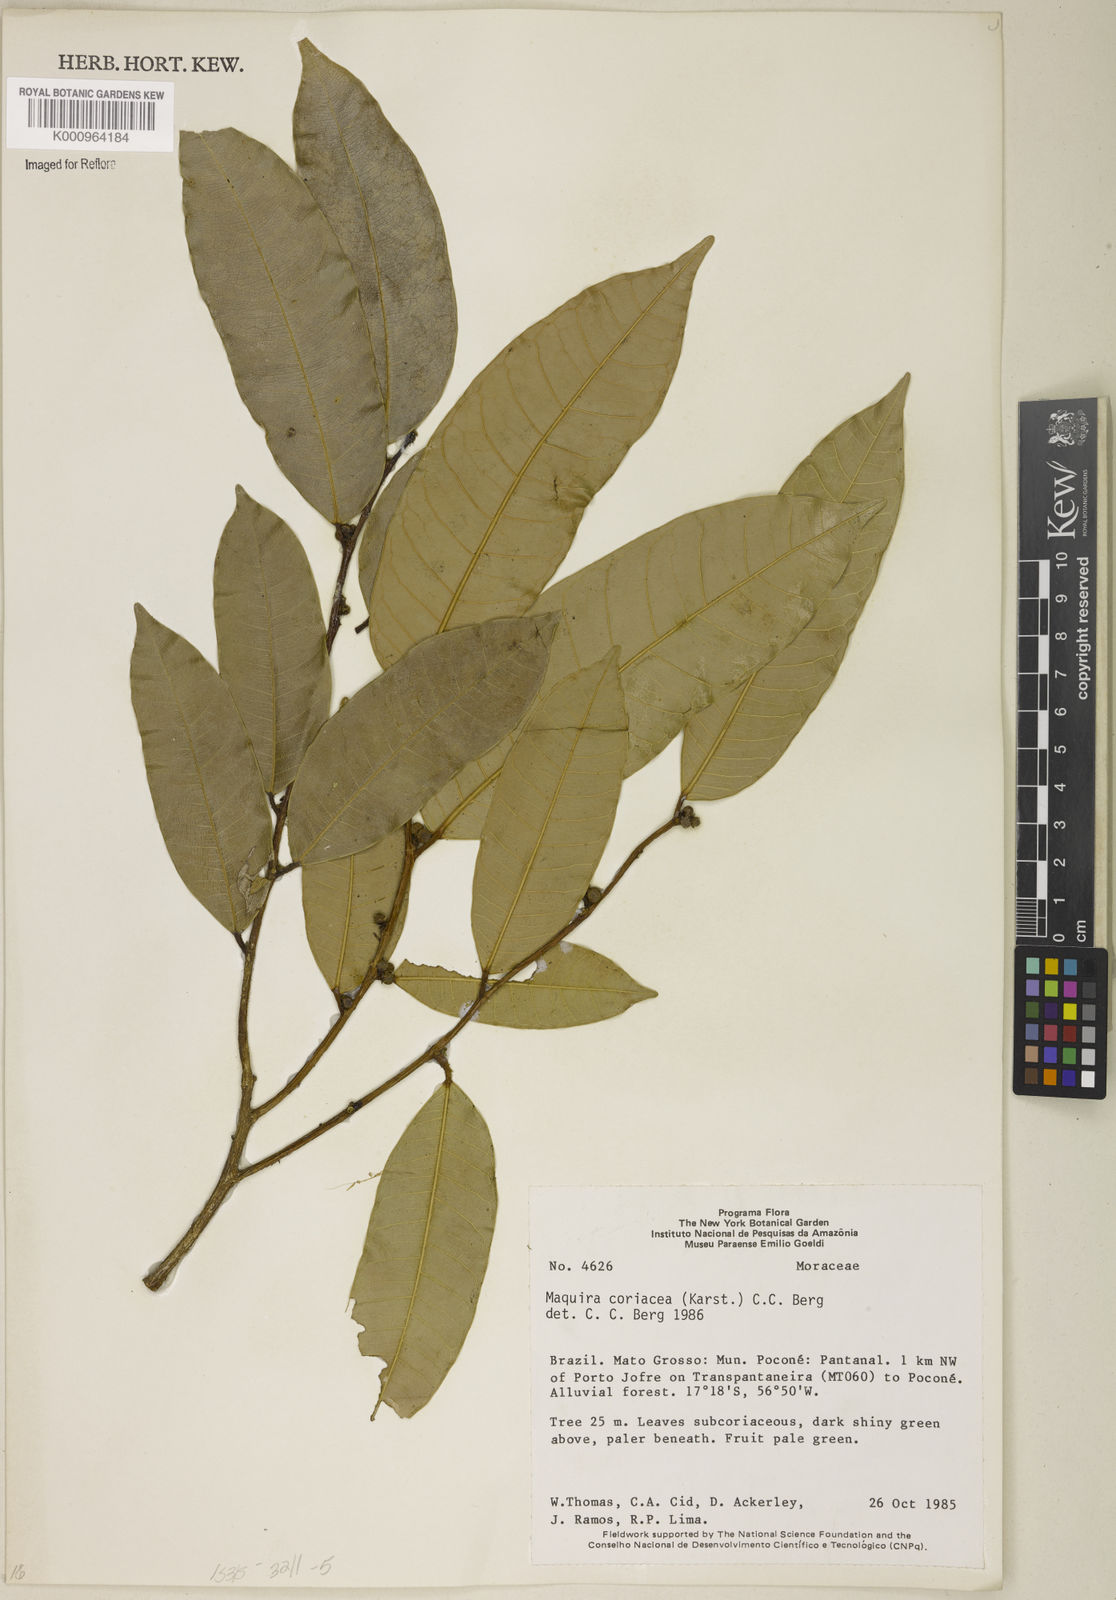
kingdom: Plantae
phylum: Tracheophyta
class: Magnoliopsida
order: Rosales
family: Moraceae
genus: Maquira
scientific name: Maquira coriacea
